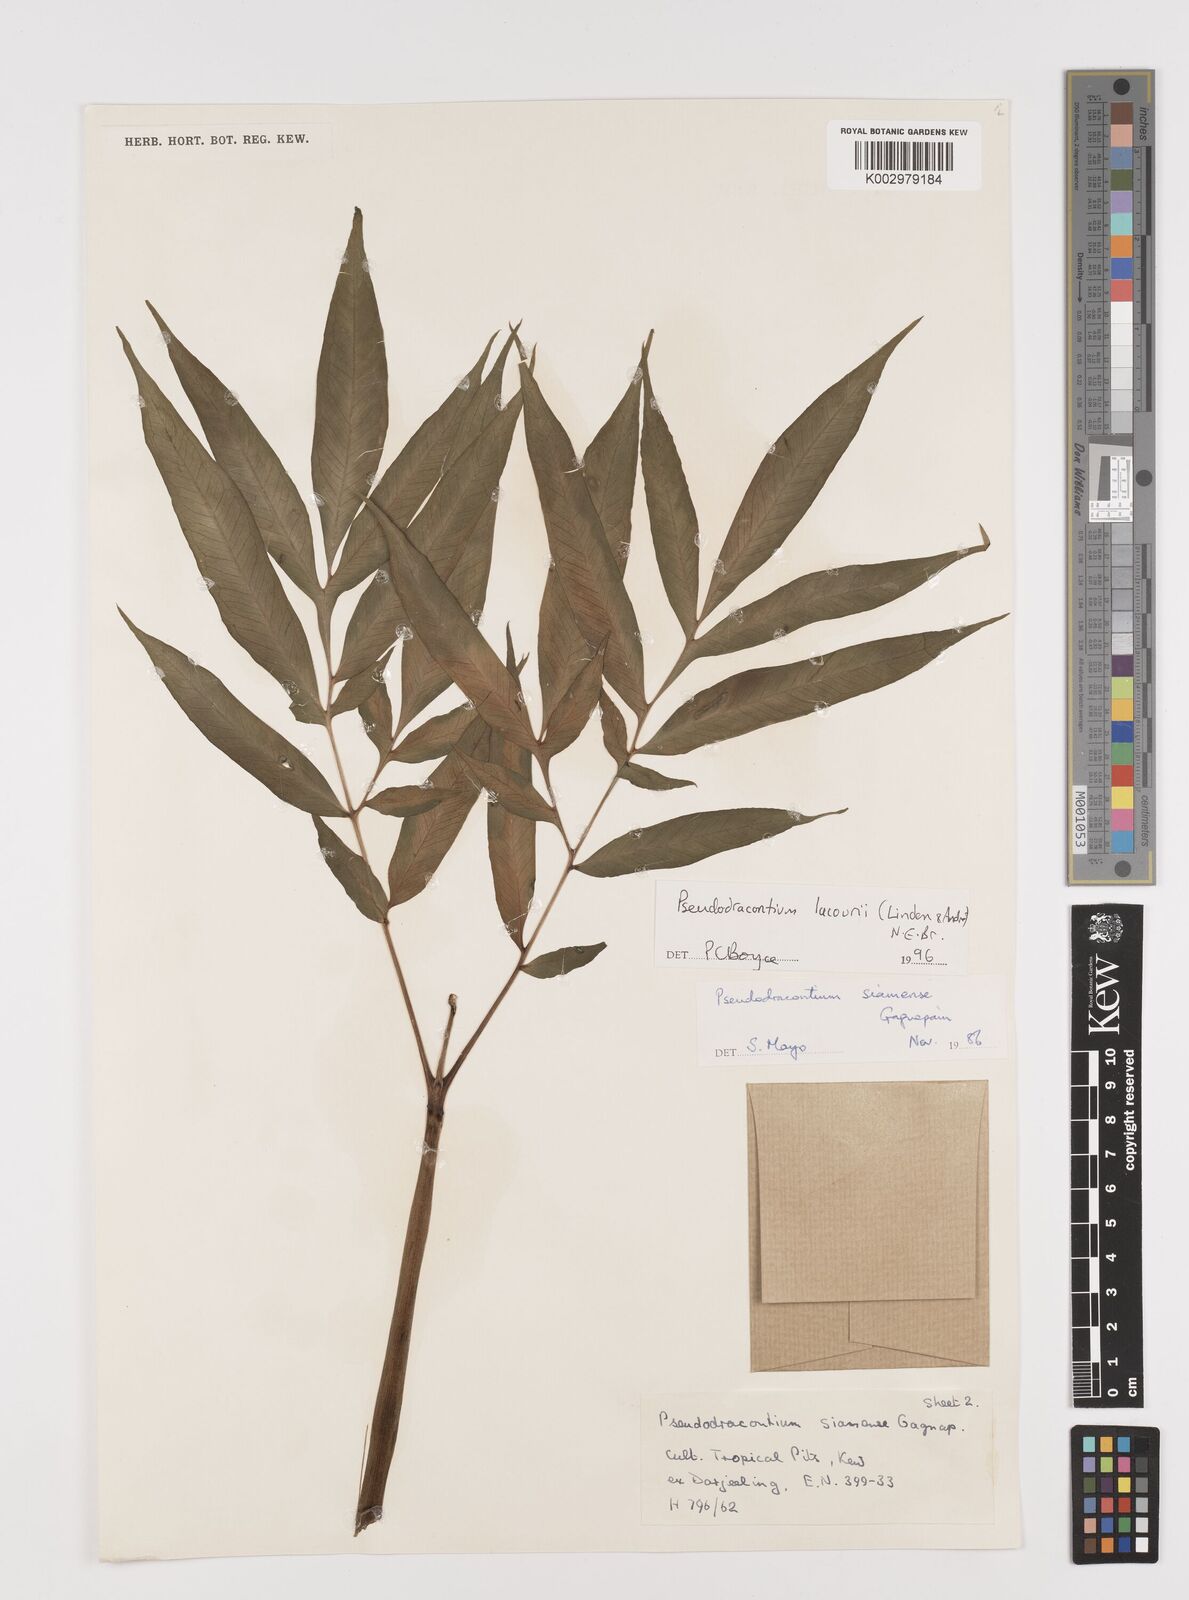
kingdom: Plantae
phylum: Tracheophyta
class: Liliopsida
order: Alismatales
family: Araceae
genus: Amorphophallus
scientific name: Amorphophallus lacourii
